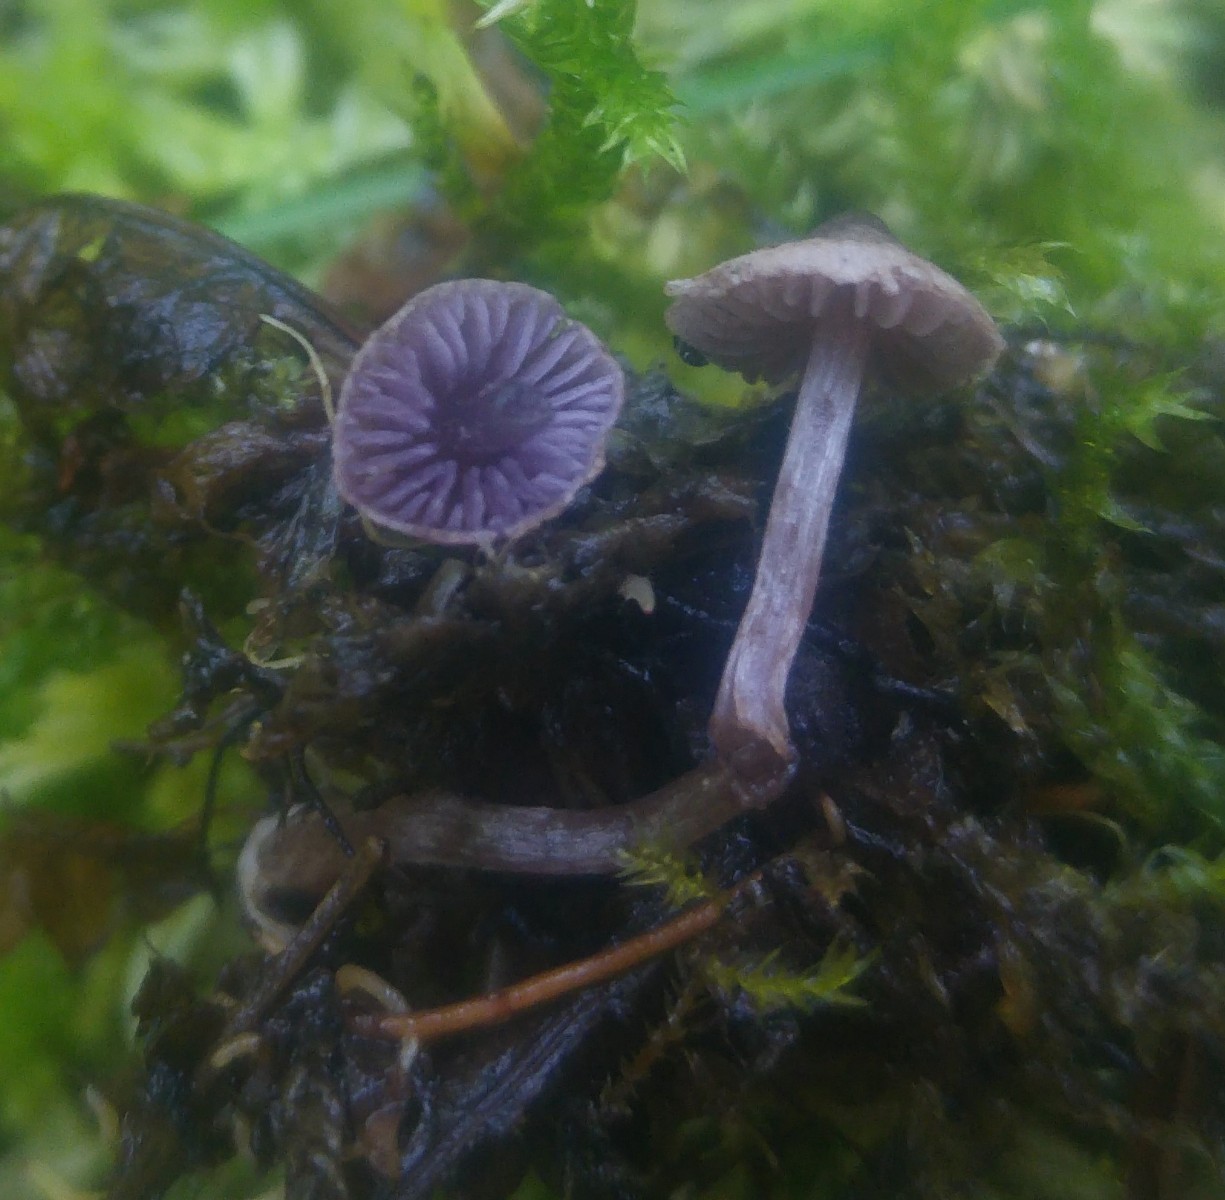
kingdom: Fungi
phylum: Basidiomycota
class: Agaricomycetes
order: Agaricales
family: Cortinariaceae
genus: Cortinarius
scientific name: Cortinarius bibulus
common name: smuk slørhat
